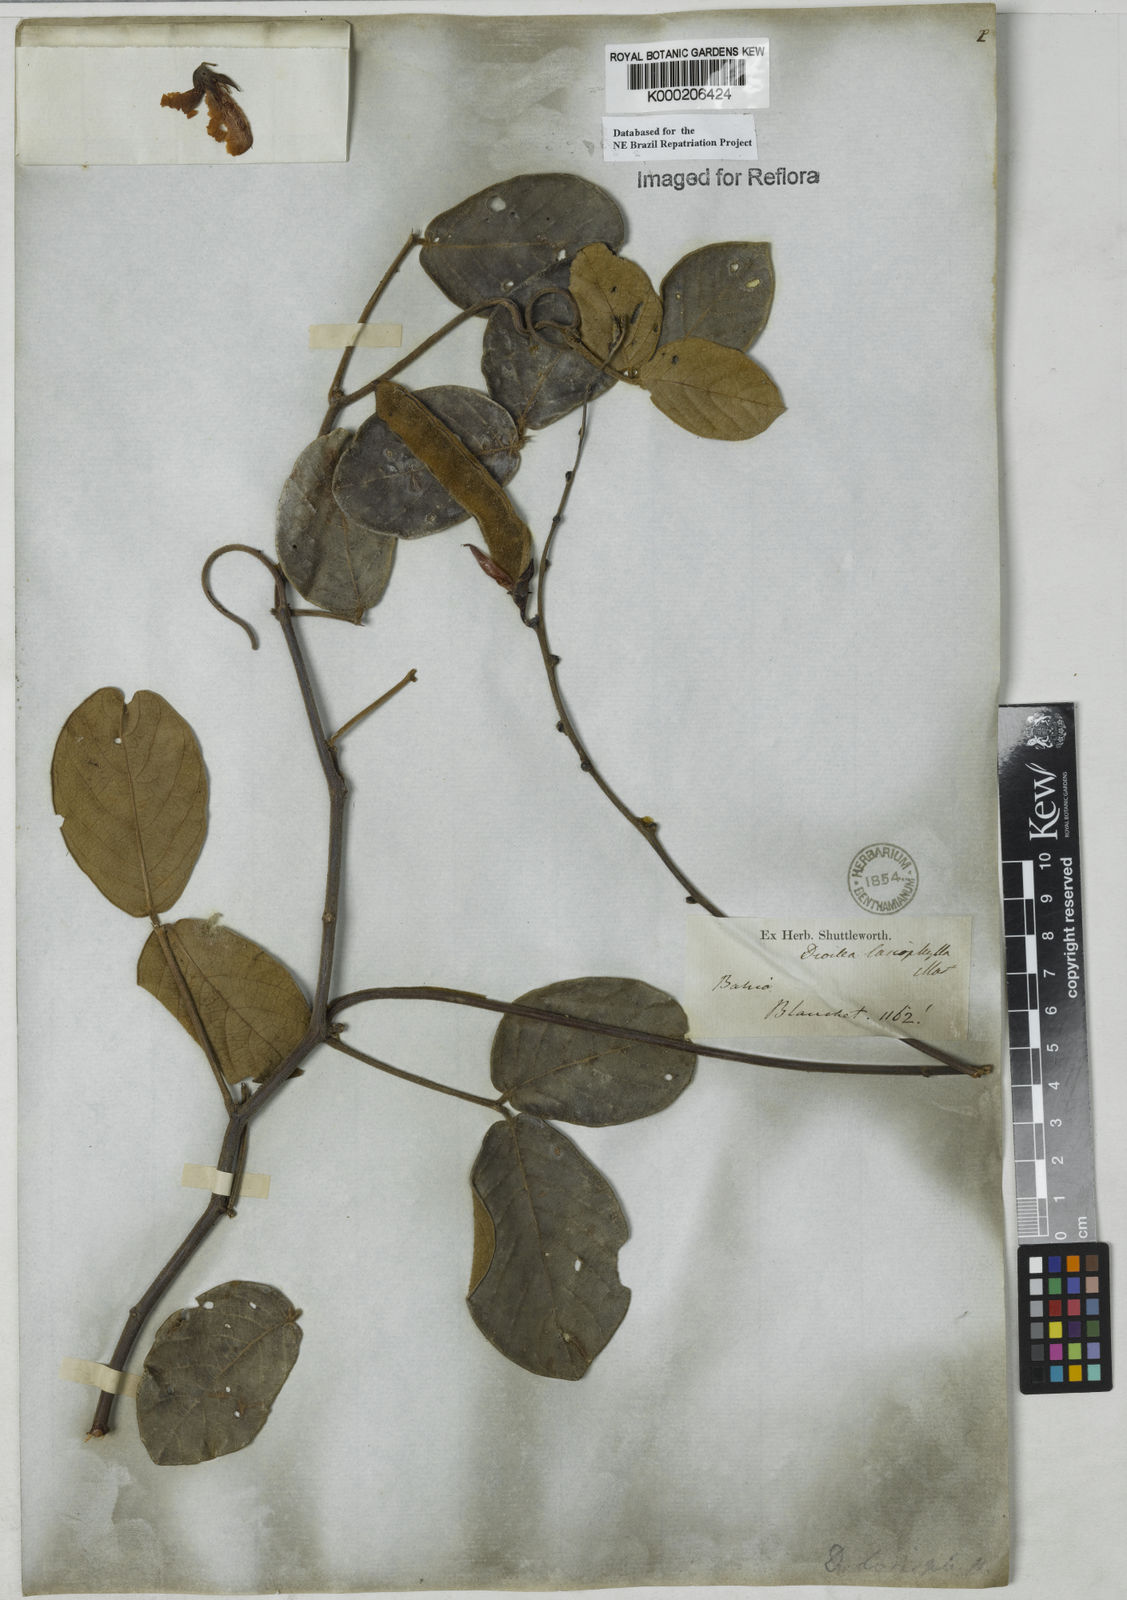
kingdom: Plantae
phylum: Tracheophyta
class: Magnoliopsida
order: Fabales
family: Fabaceae
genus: Dioclea
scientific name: Dioclea lasiophylla
